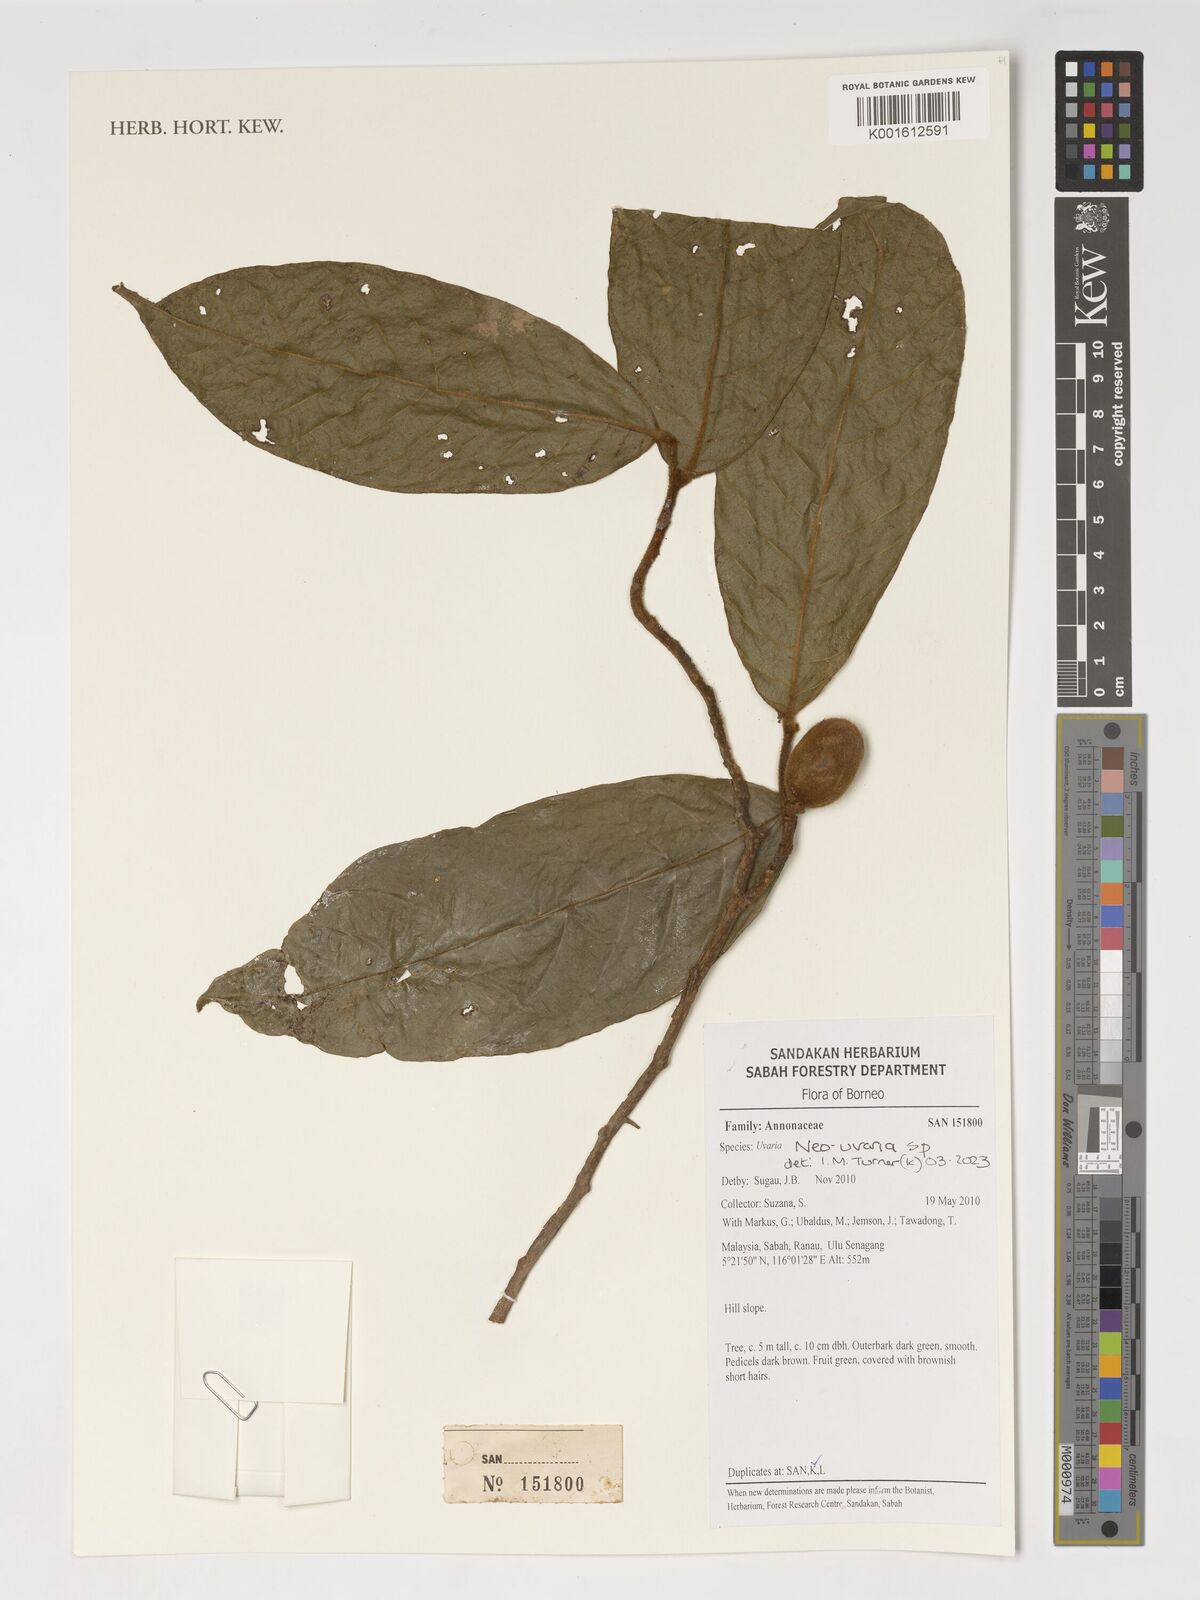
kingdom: Plantae
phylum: Tracheophyta
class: Magnoliopsida
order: Magnoliales
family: Annonaceae
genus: Neo-uvaria
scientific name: Neo-uvaria
